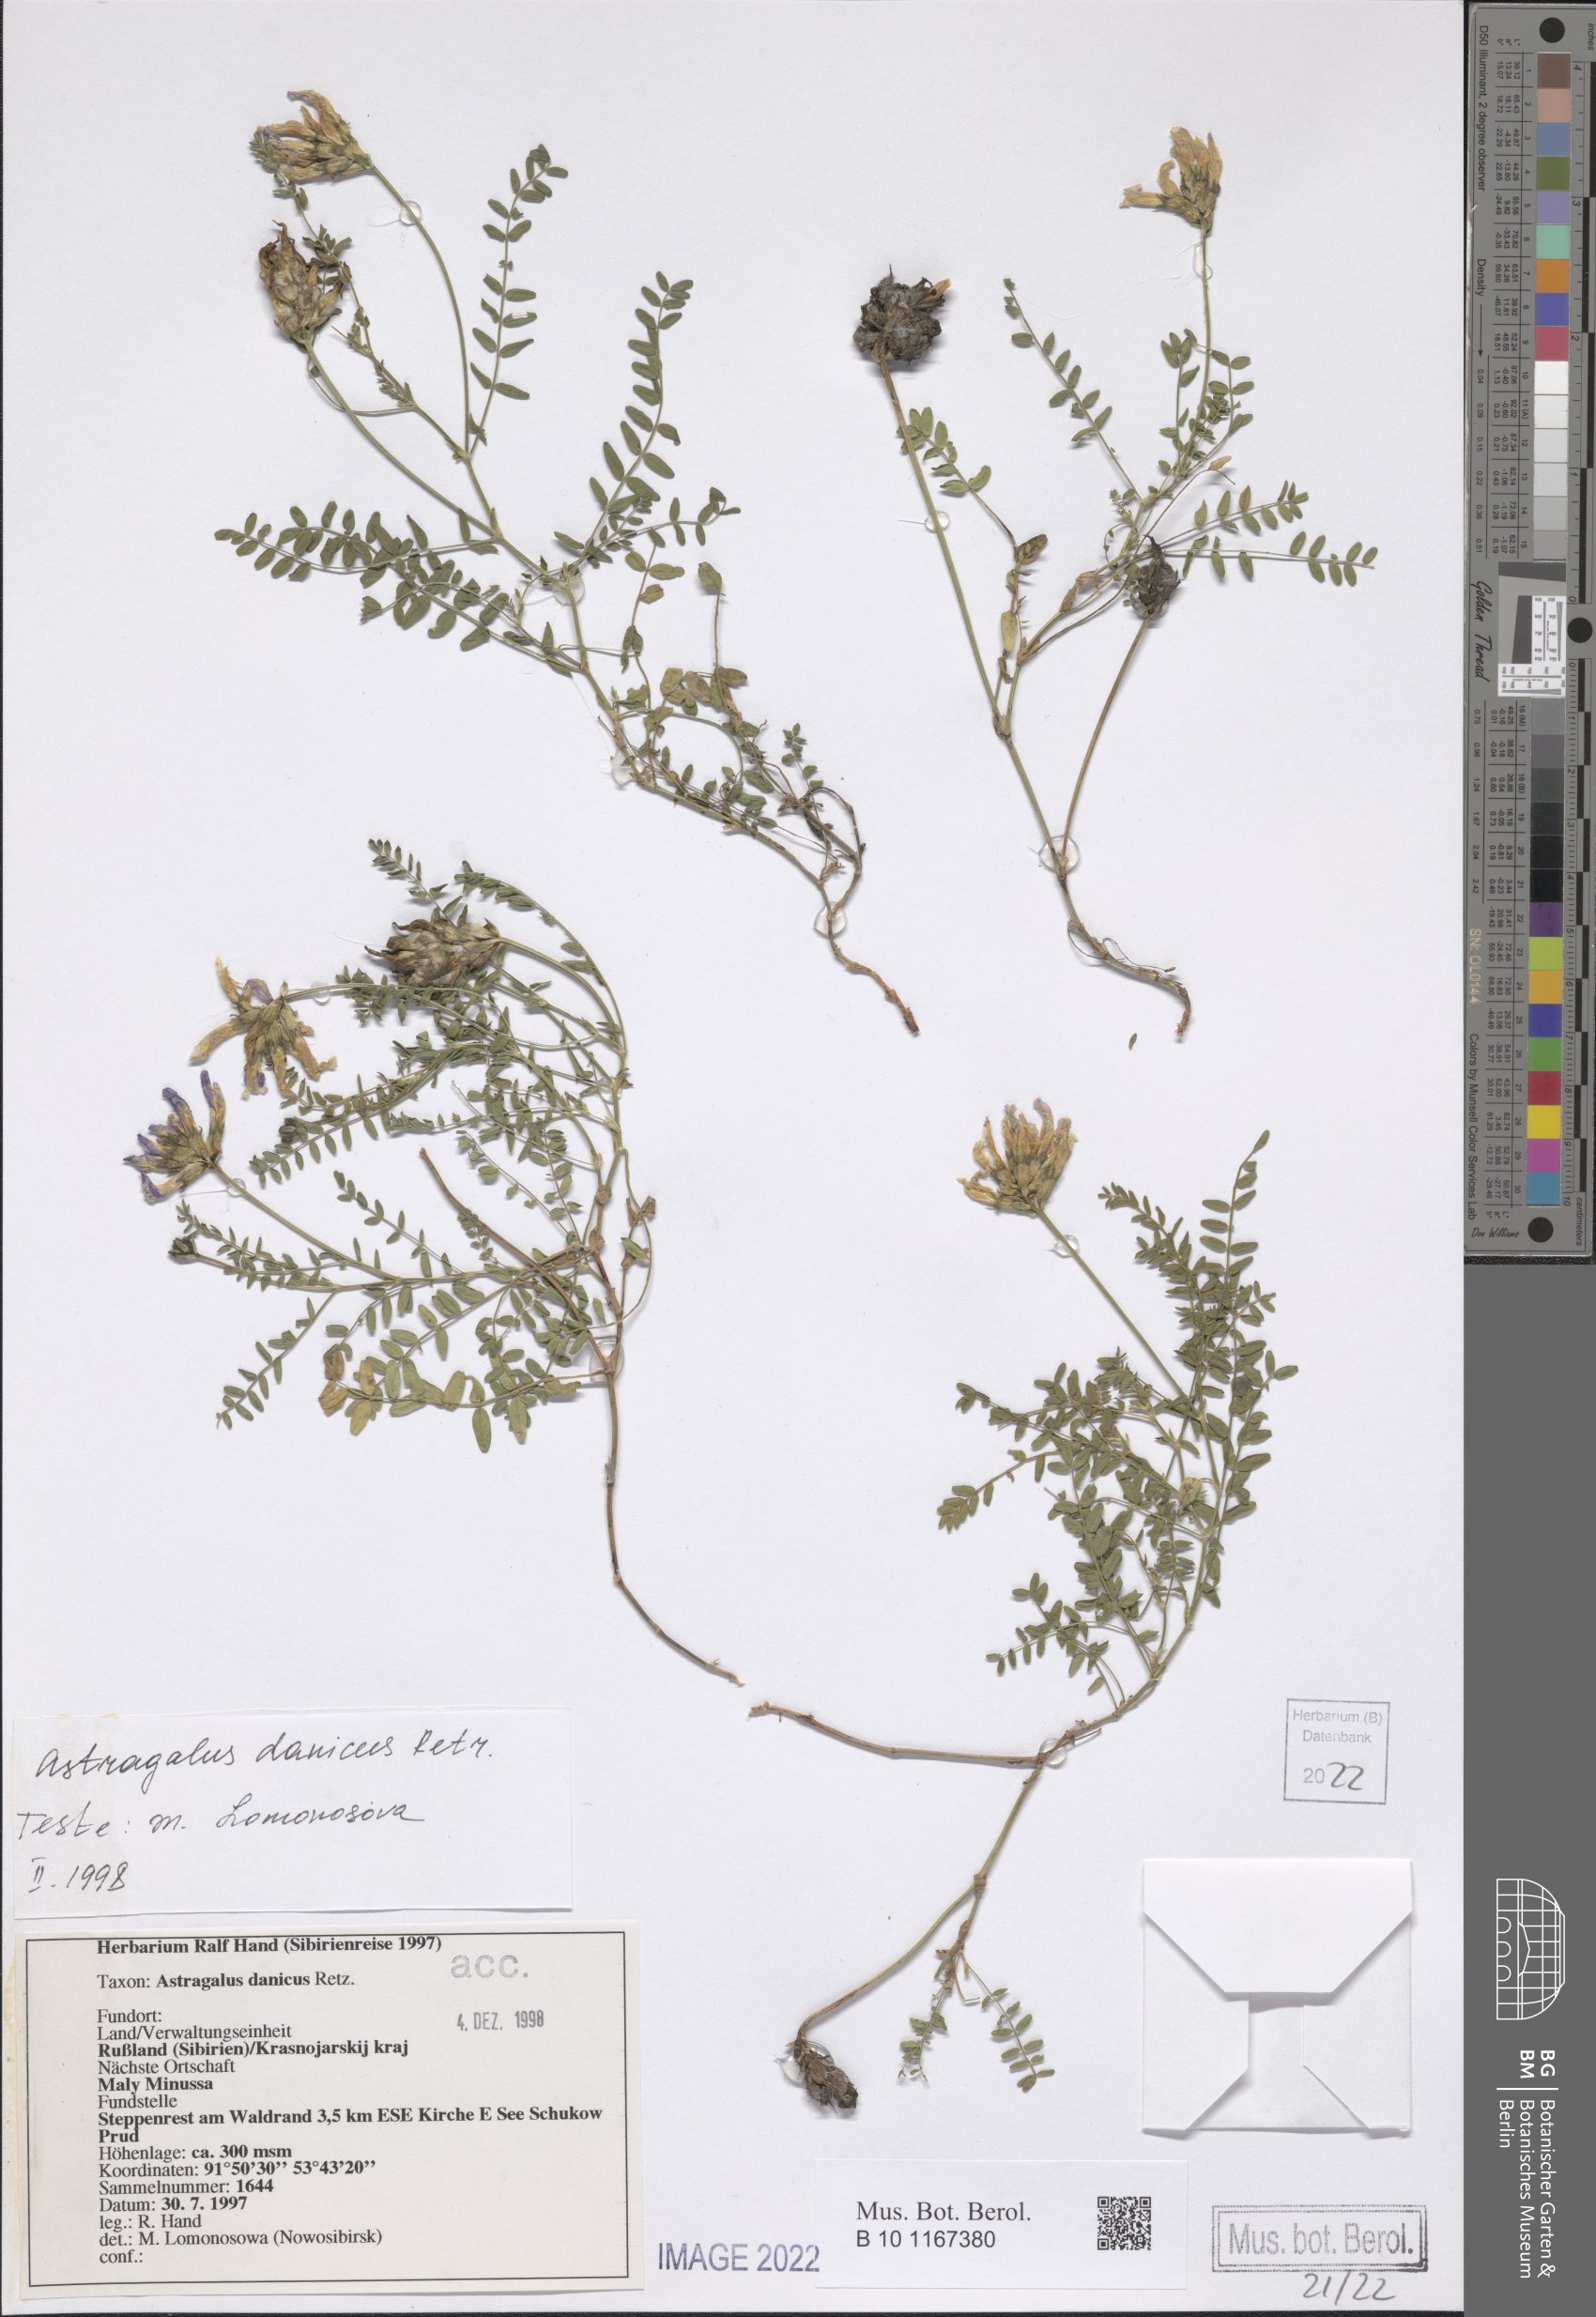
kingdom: Plantae
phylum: Tracheophyta
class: Magnoliopsida
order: Fabales
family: Fabaceae
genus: Astragalus
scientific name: Astragalus danicus
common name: Purple milk-vetch
